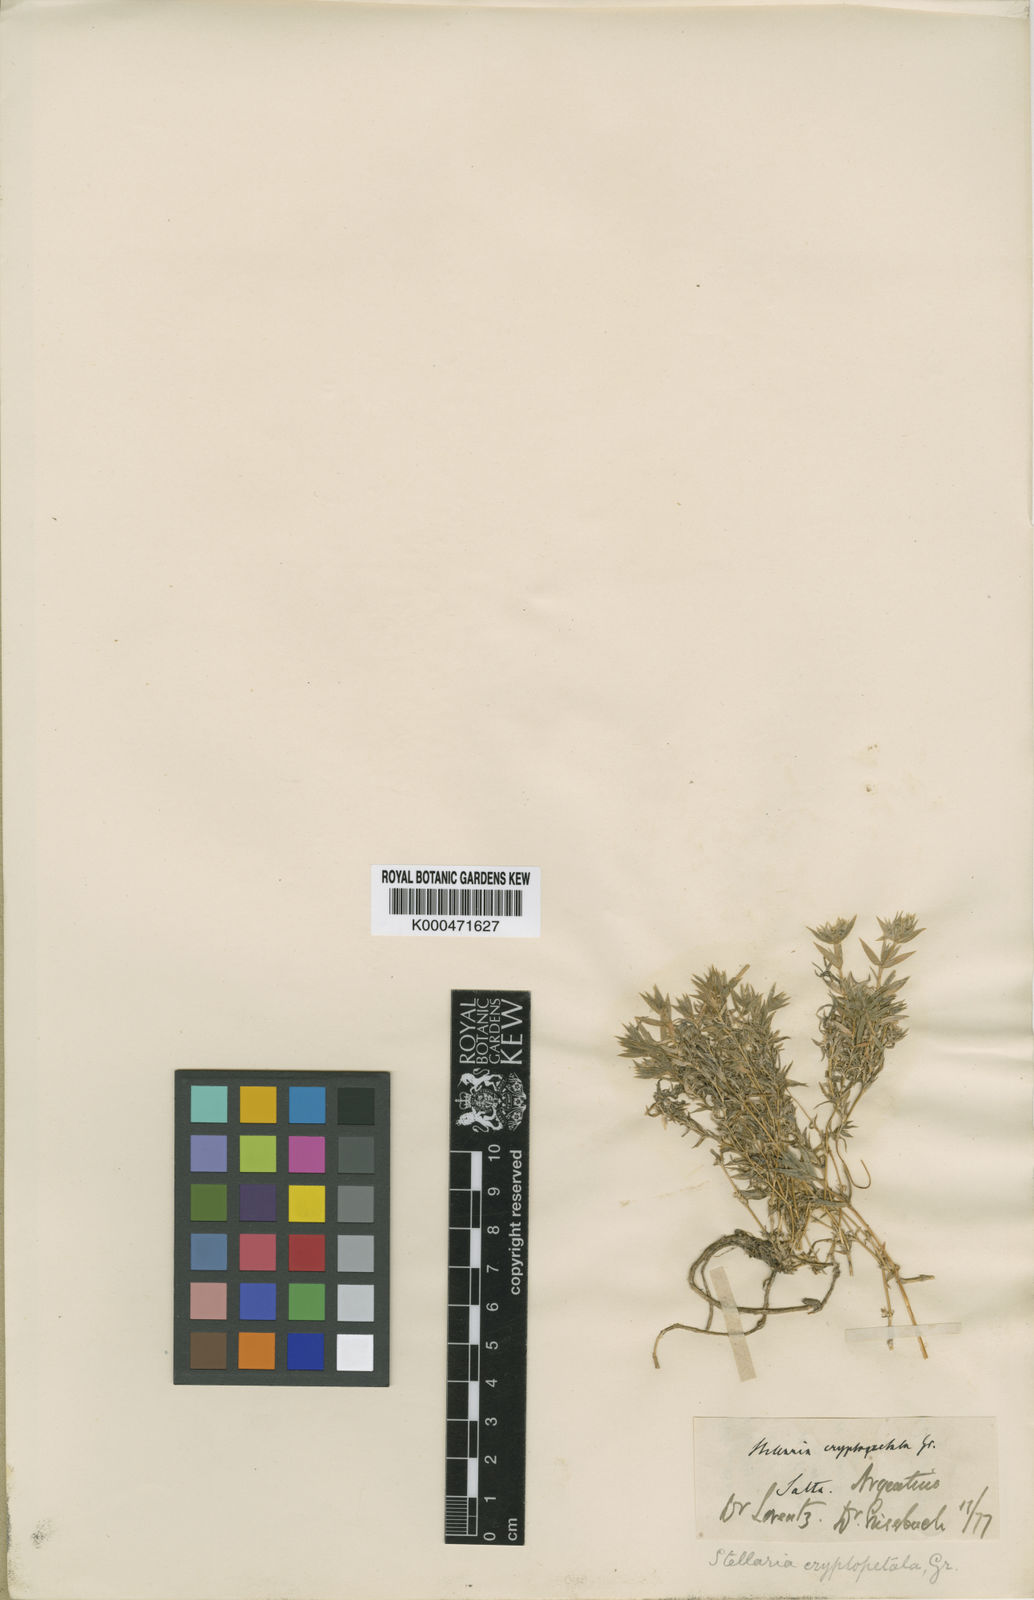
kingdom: Plantae
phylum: Tracheophyta
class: Magnoliopsida
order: Caryophyllales
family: Caryophyllaceae
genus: Stellaria
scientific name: Stellaria cryptopetala
